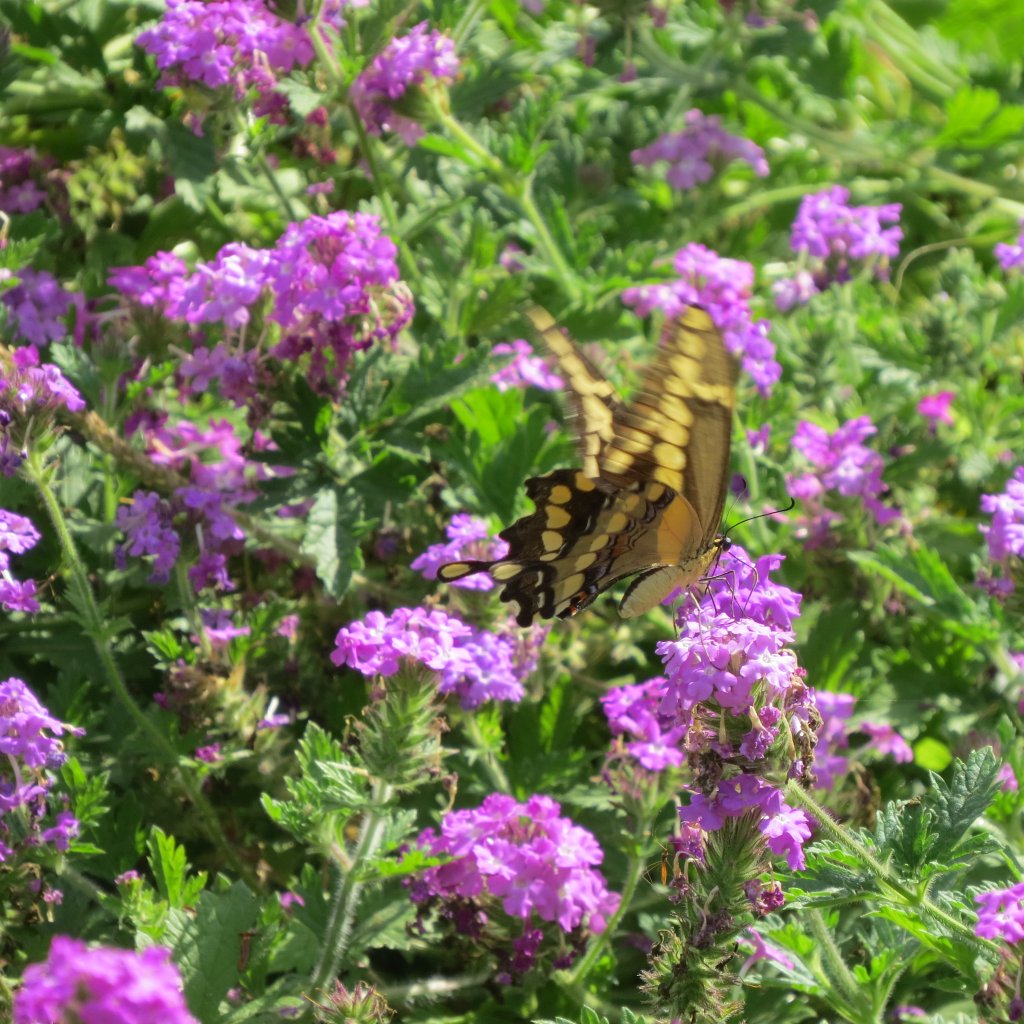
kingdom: Animalia
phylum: Arthropoda
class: Insecta
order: Lepidoptera
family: Papilionidae
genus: Papilio
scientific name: Papilio rumiko
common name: Western Giant Swallowtail
